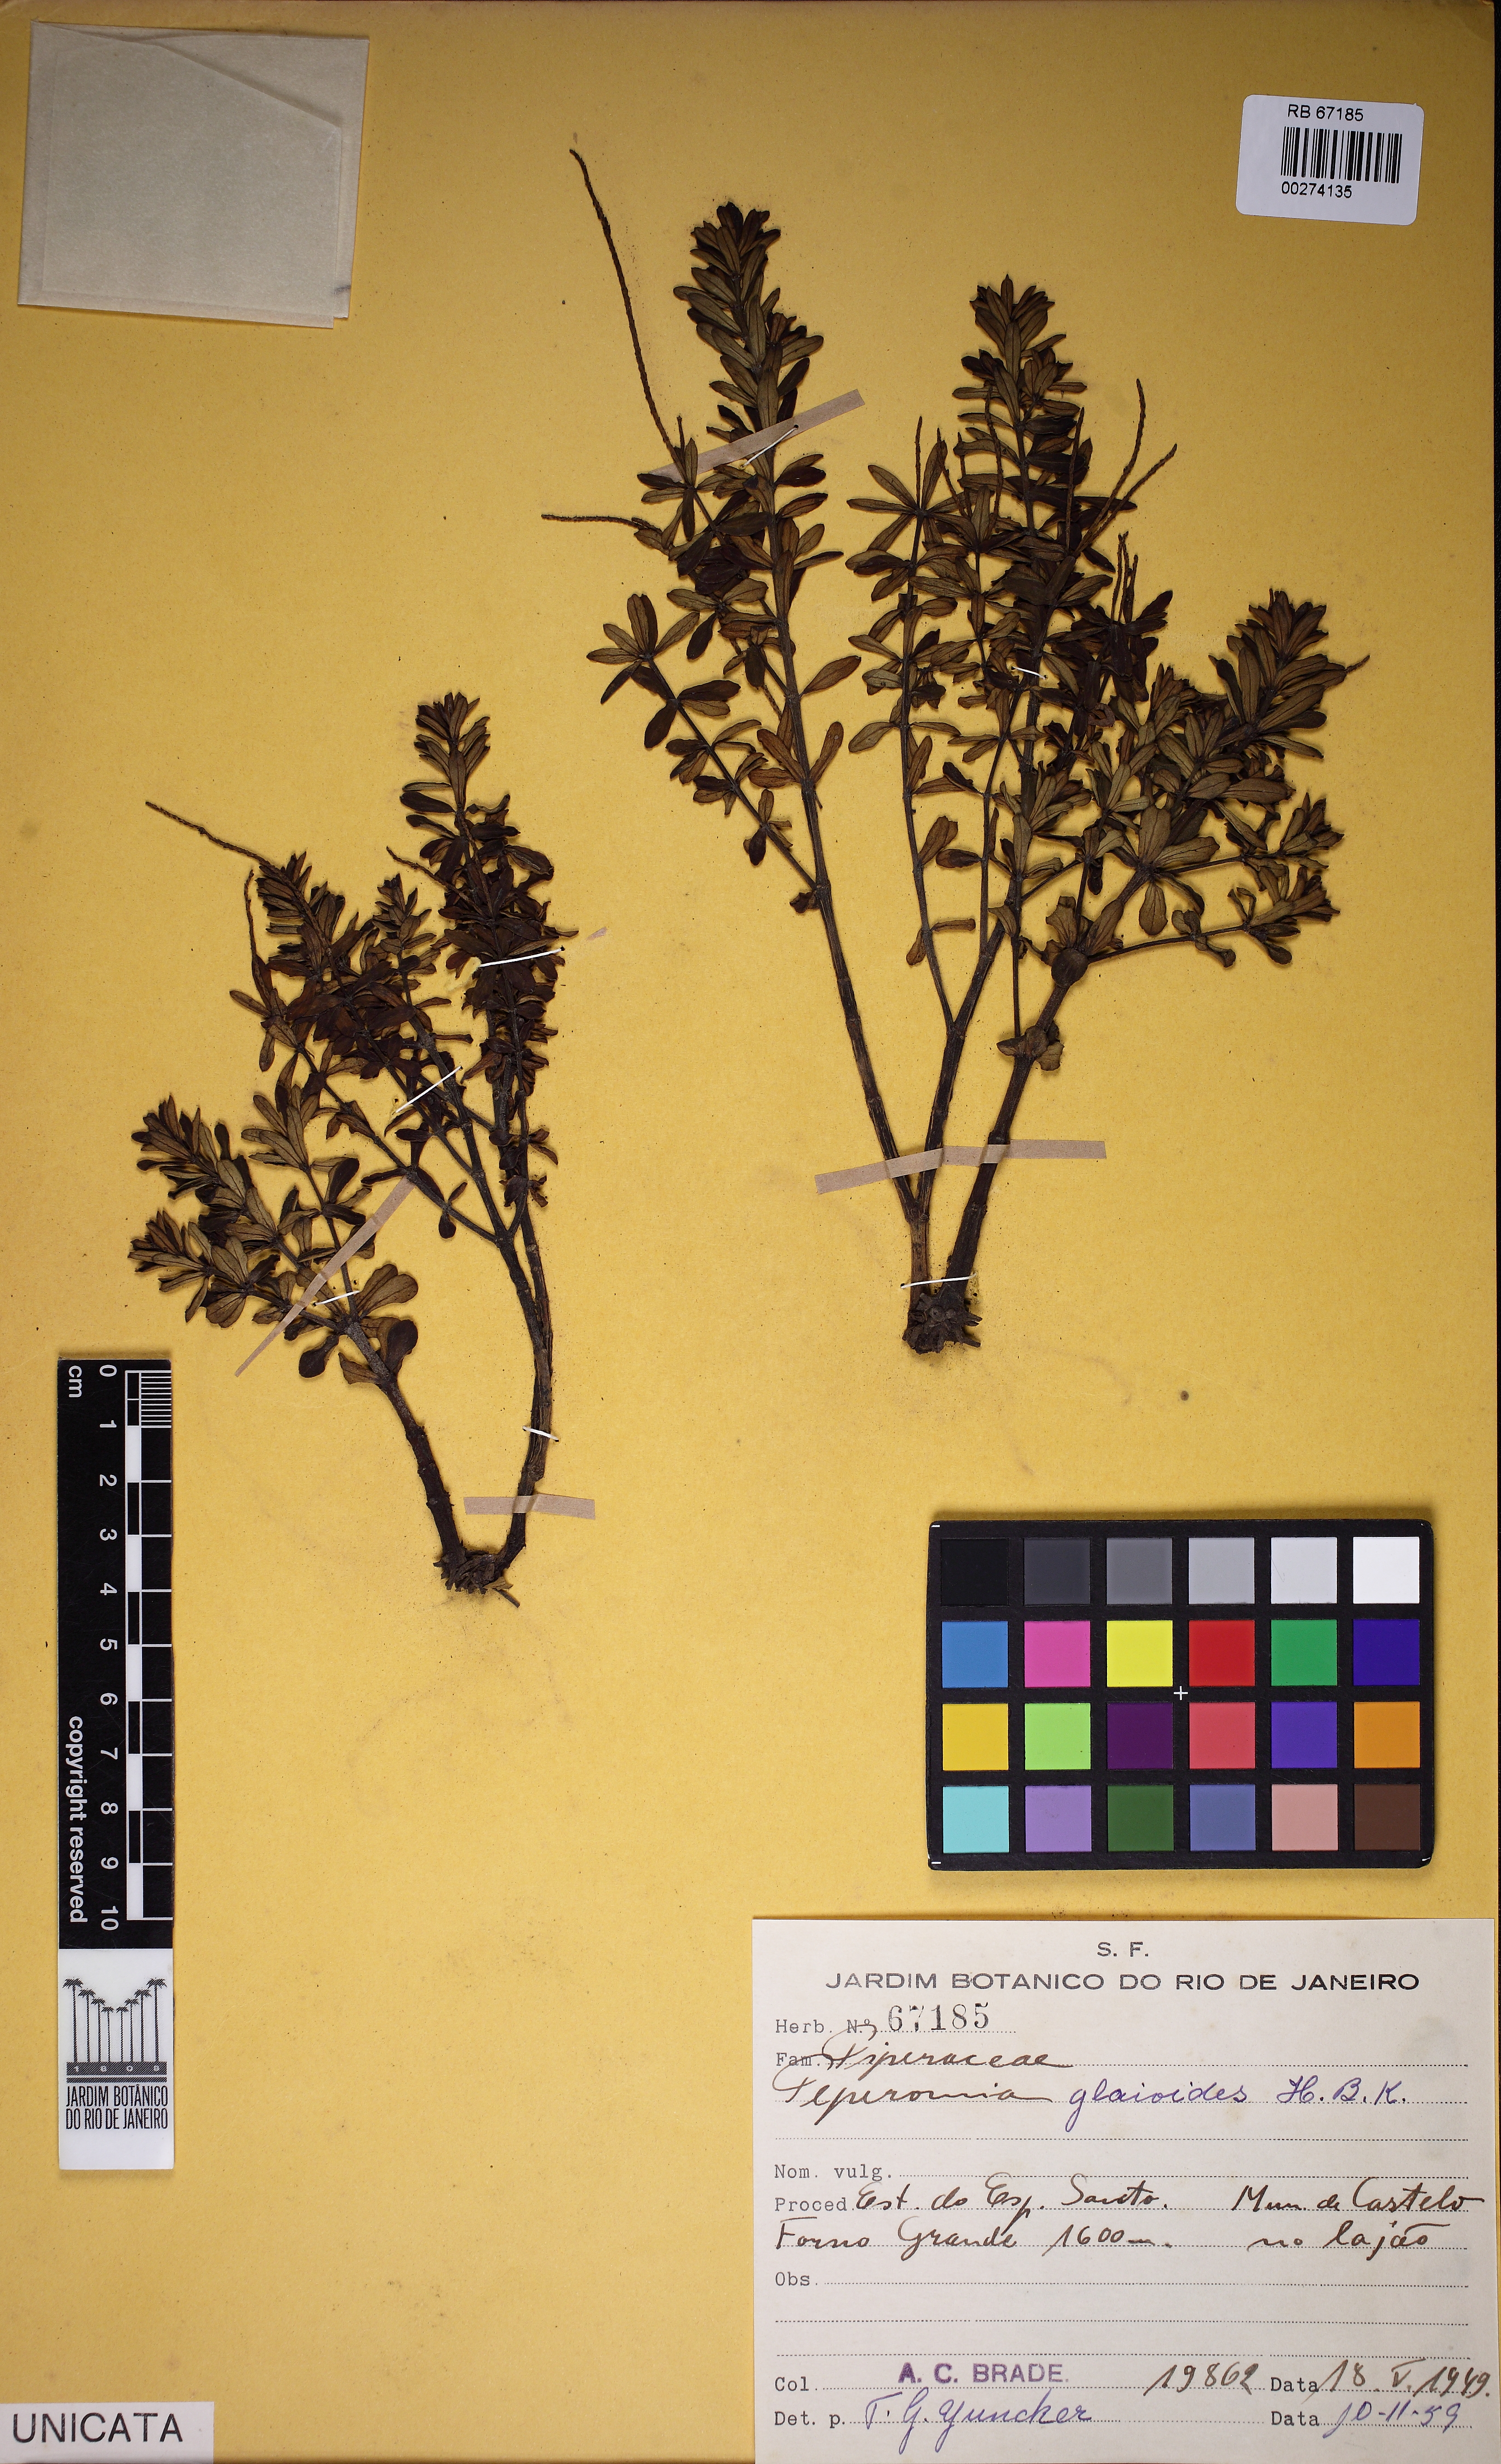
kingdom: Plantae
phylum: Tracheophyta
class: Magnoliopsida
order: Piperales
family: Piperaceae
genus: Peperomia
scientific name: Peperomia galioides
